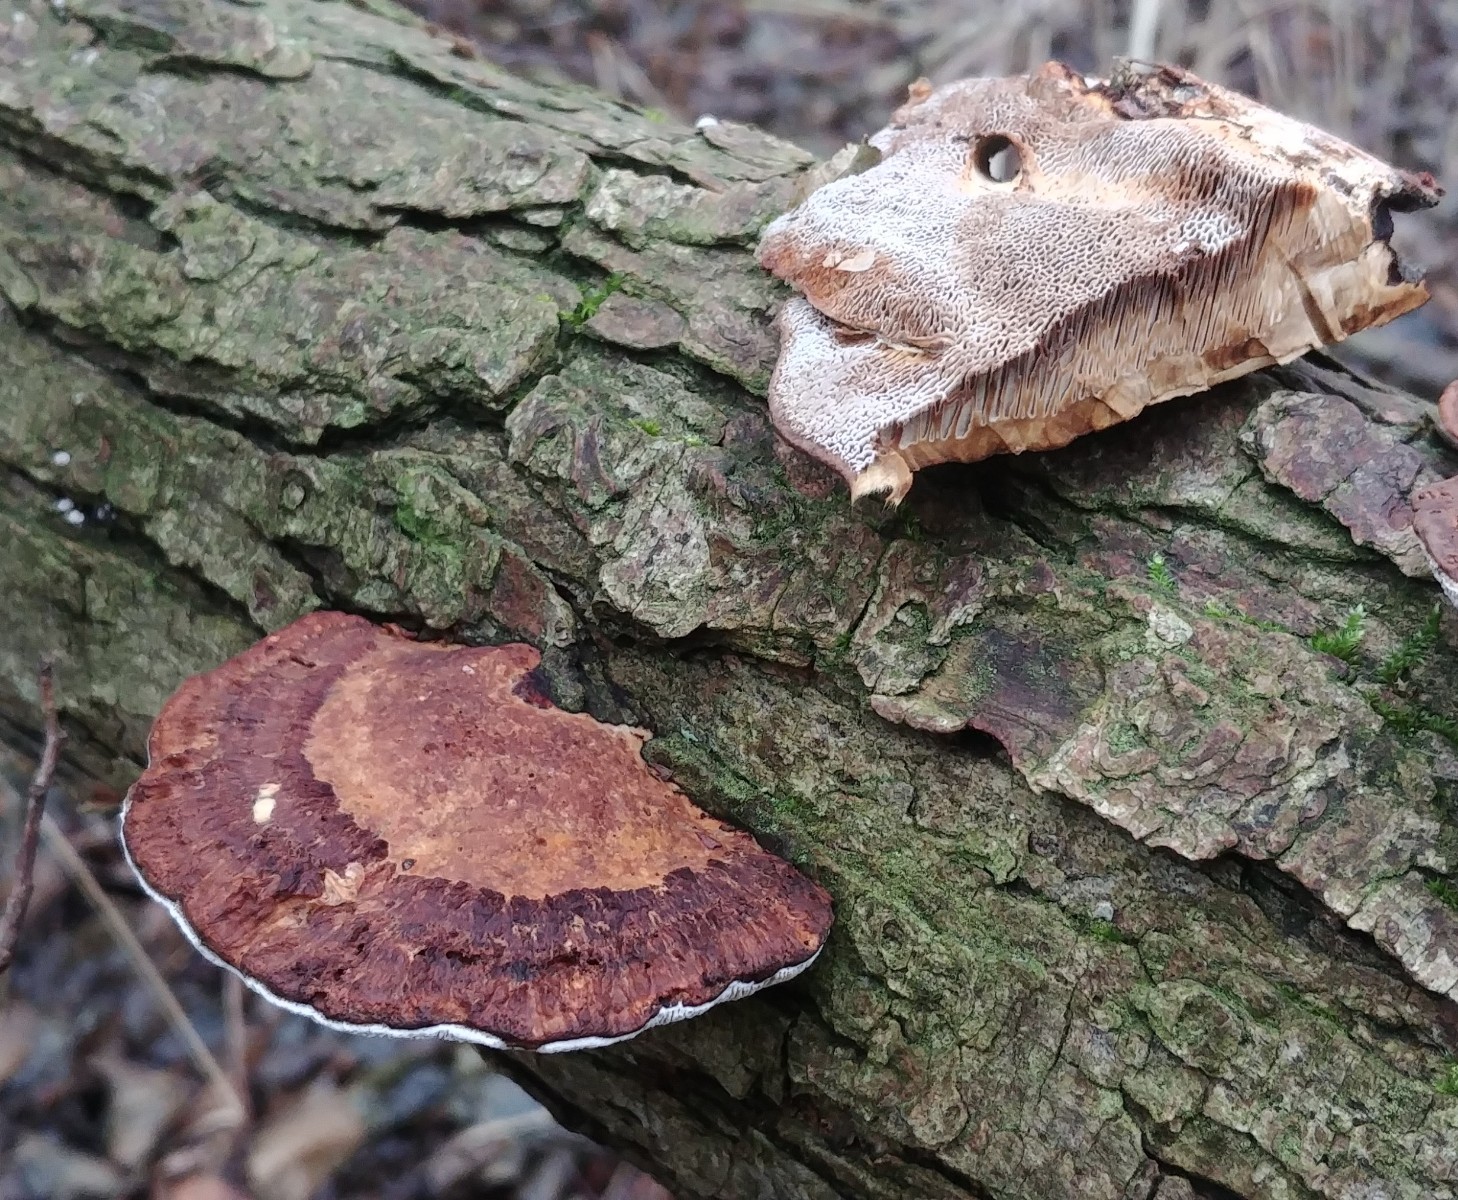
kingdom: Fungi
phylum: Basidiomycota
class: Agaricomycetes
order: Polyporales
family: Polyporaceae
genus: Daedaleopsis
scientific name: Daedaleopsis confragosa
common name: rødmende læderporesvamp
